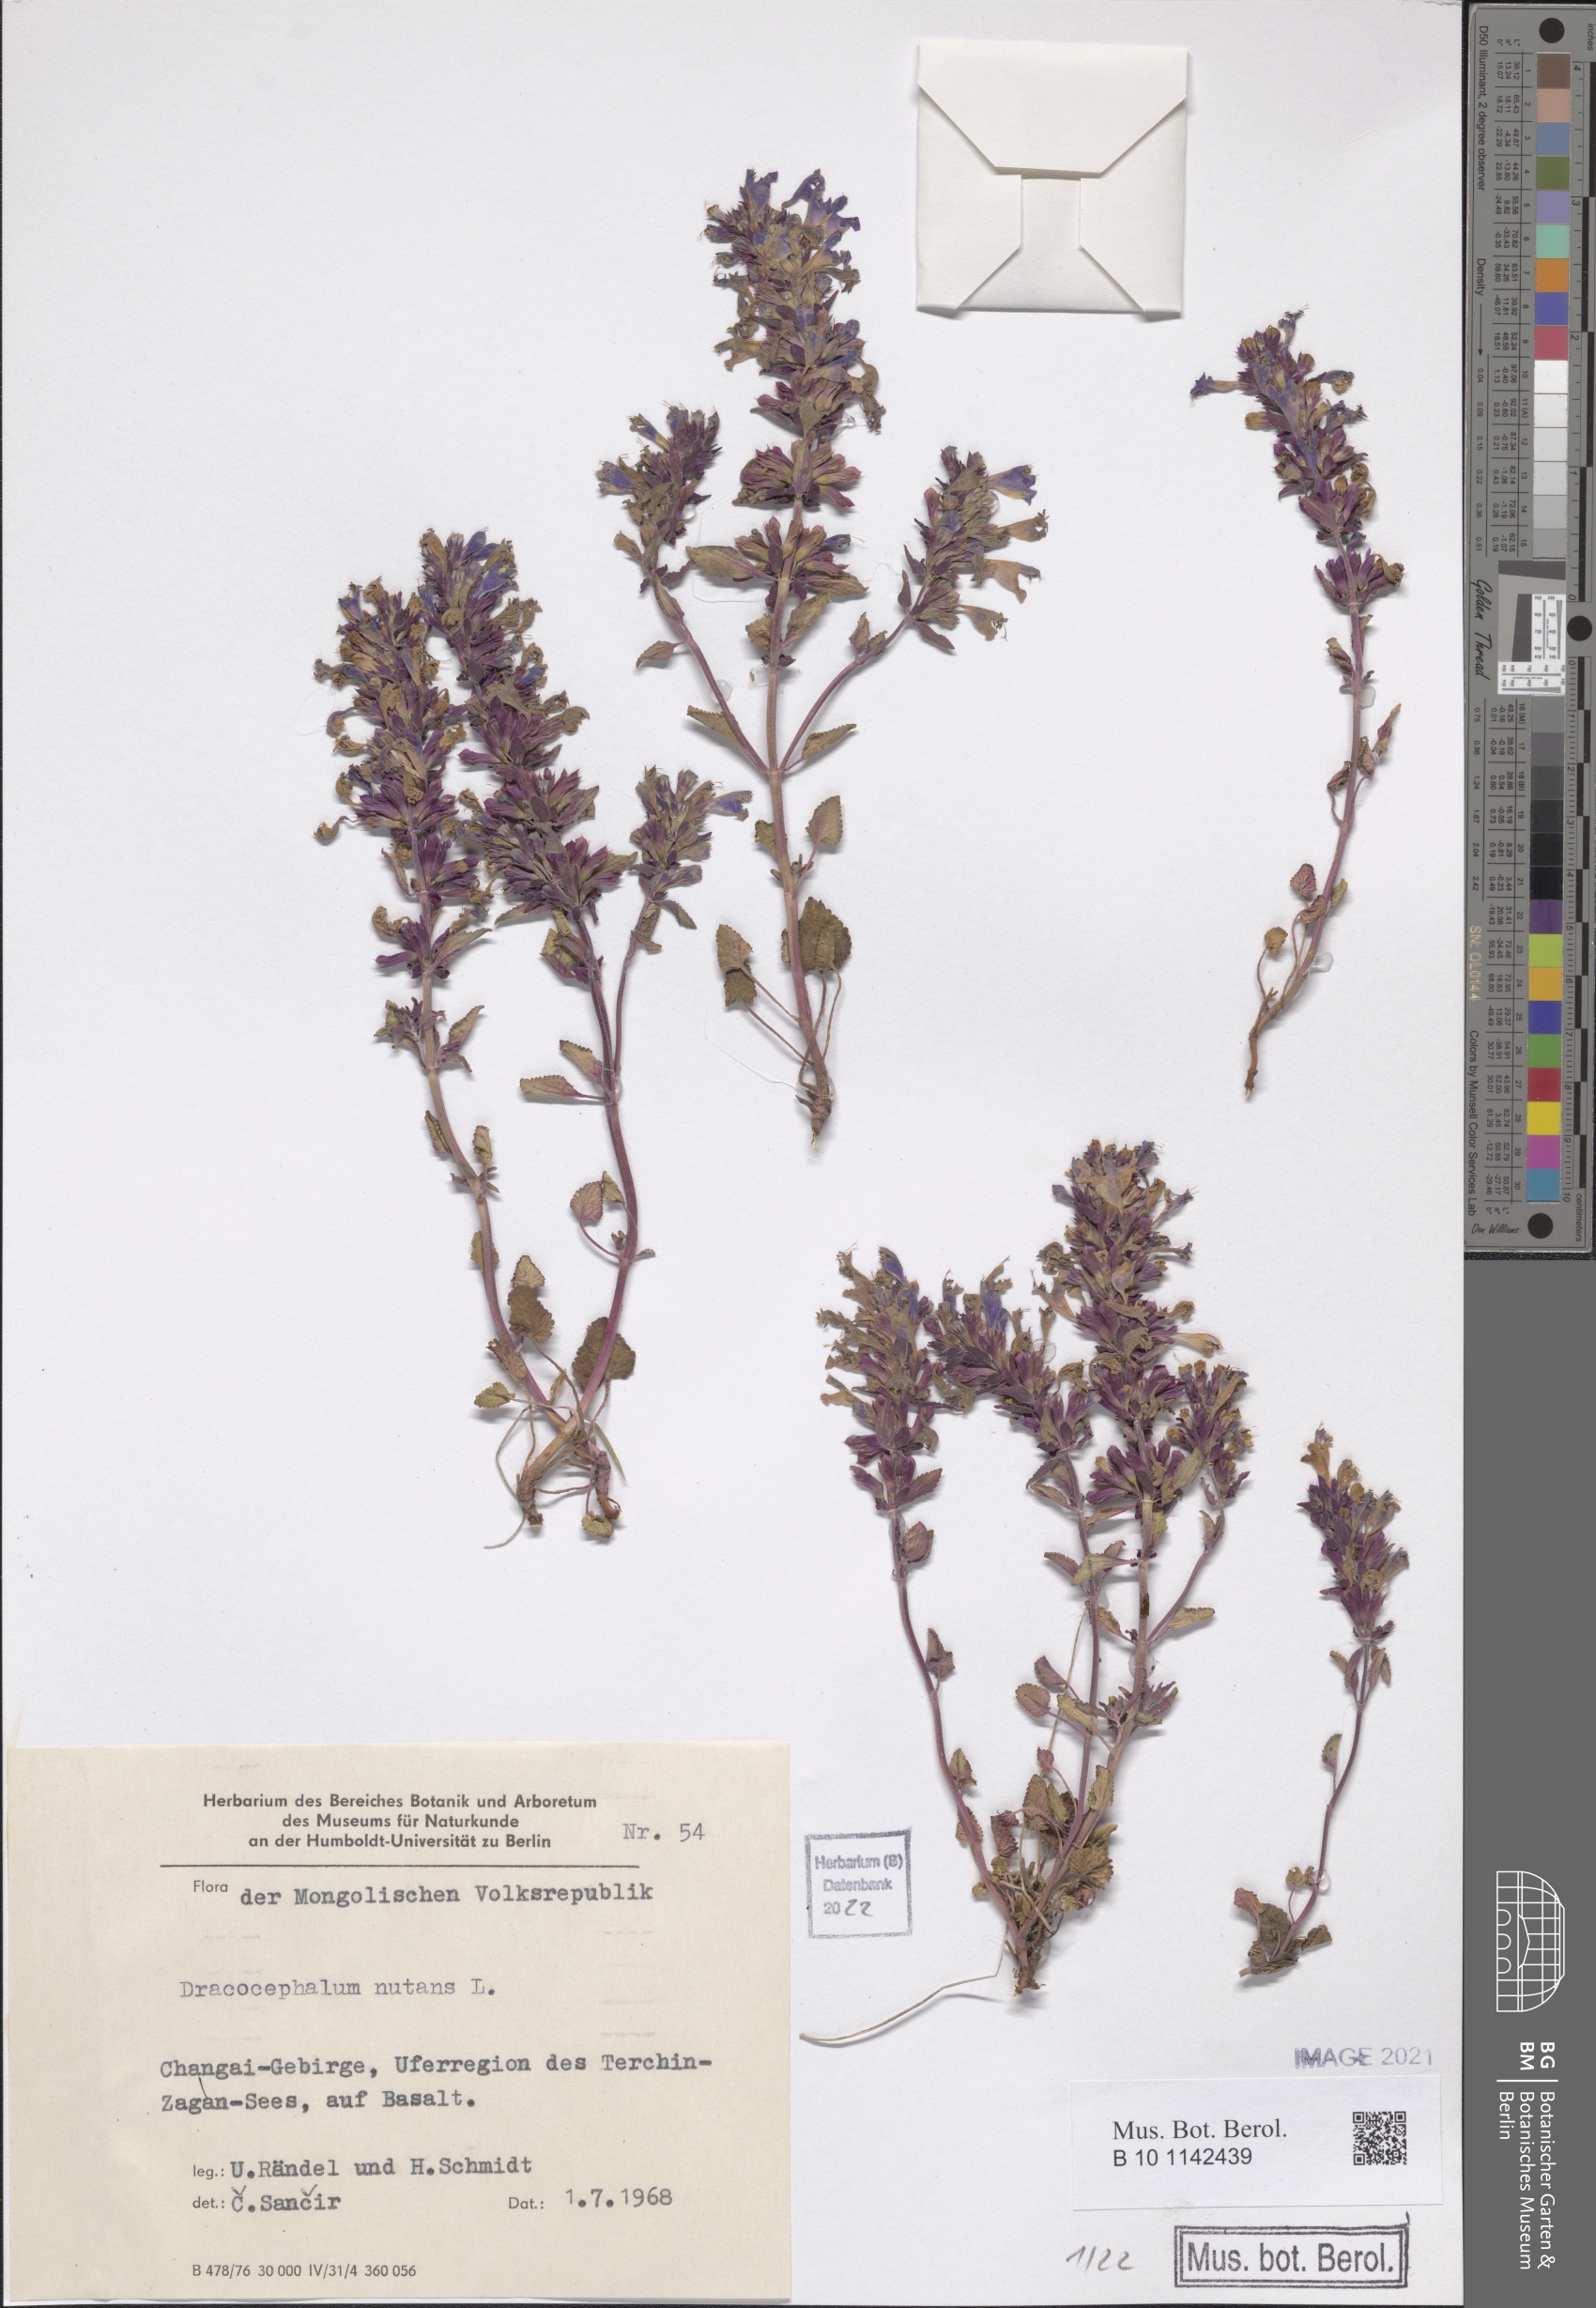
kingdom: Plantae
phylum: Tracheophyta
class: Magnoliopsida
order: Lamiales
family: Lamiaceae
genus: Dracocephalum
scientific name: Dracocephalum nutans
